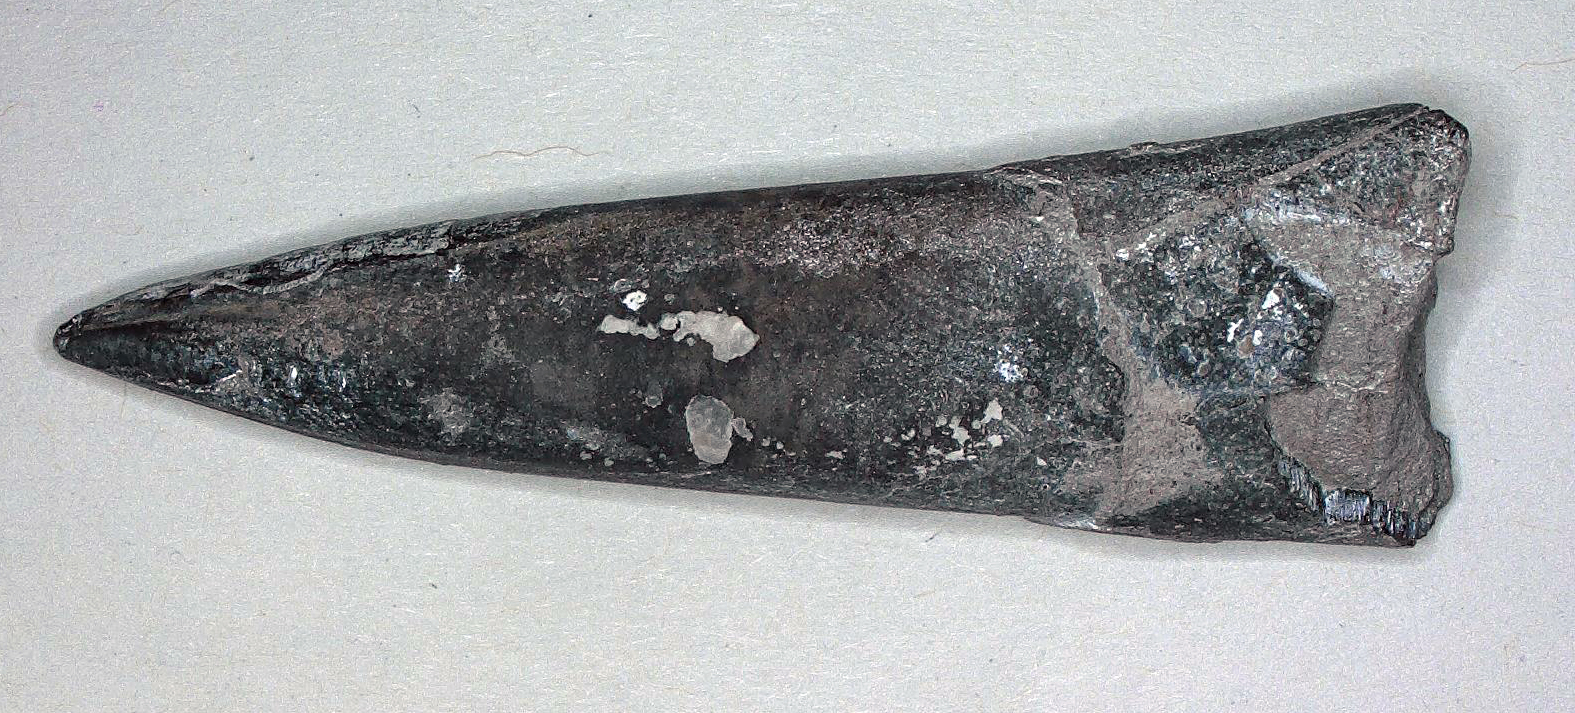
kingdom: Animalia
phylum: Mollusca
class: Cephalopoda
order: Belemnitida
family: Megateuthididae
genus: Acrocoelites
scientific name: Acrocoelites pyramidalis
